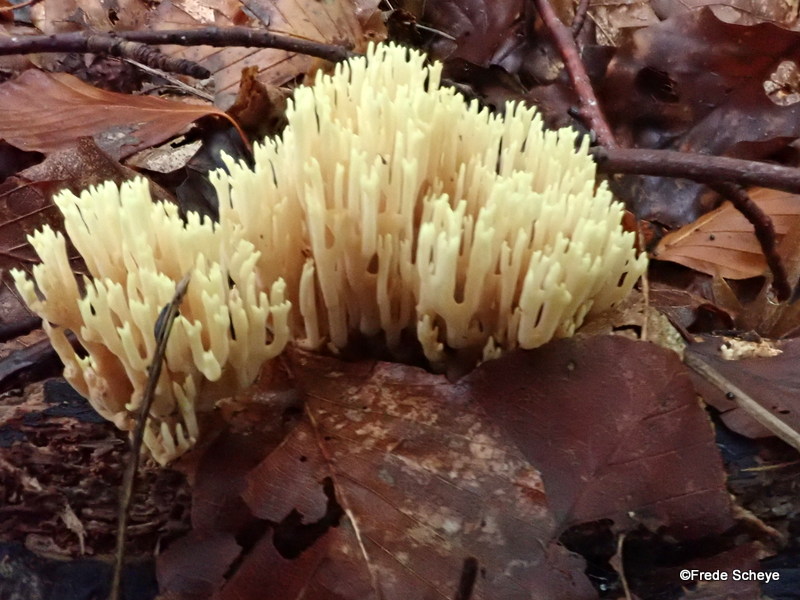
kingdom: Fungi
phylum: Basidiomycota
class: Agaricomycetes
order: Gomphales
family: Gomphaceae
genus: Ramaria
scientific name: Ramaria stricta
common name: rank koralsvamp
